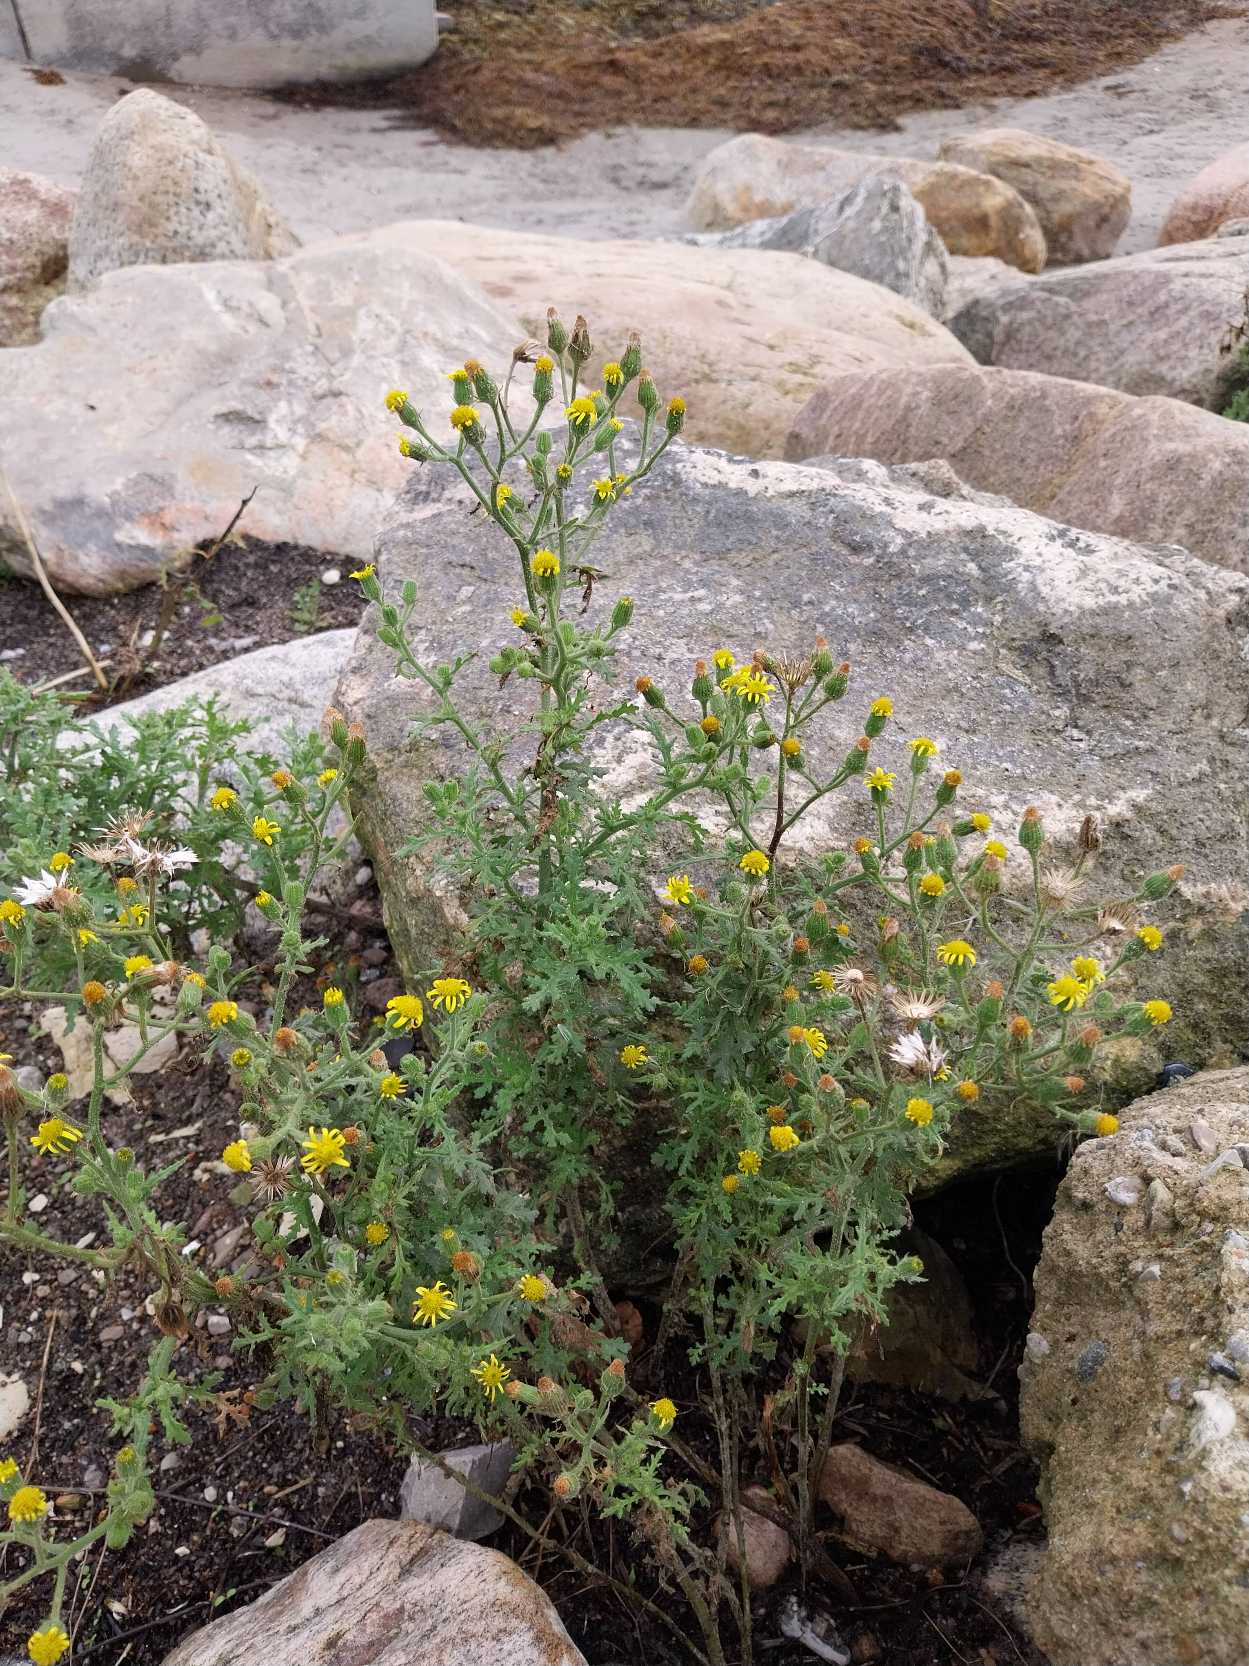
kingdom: Plantae
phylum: Tracheophyta
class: Magnoliopsida
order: Asterales
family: Asteraceae
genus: Senecio
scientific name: Senecio viscosus
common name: Klæbrig brandbæger
